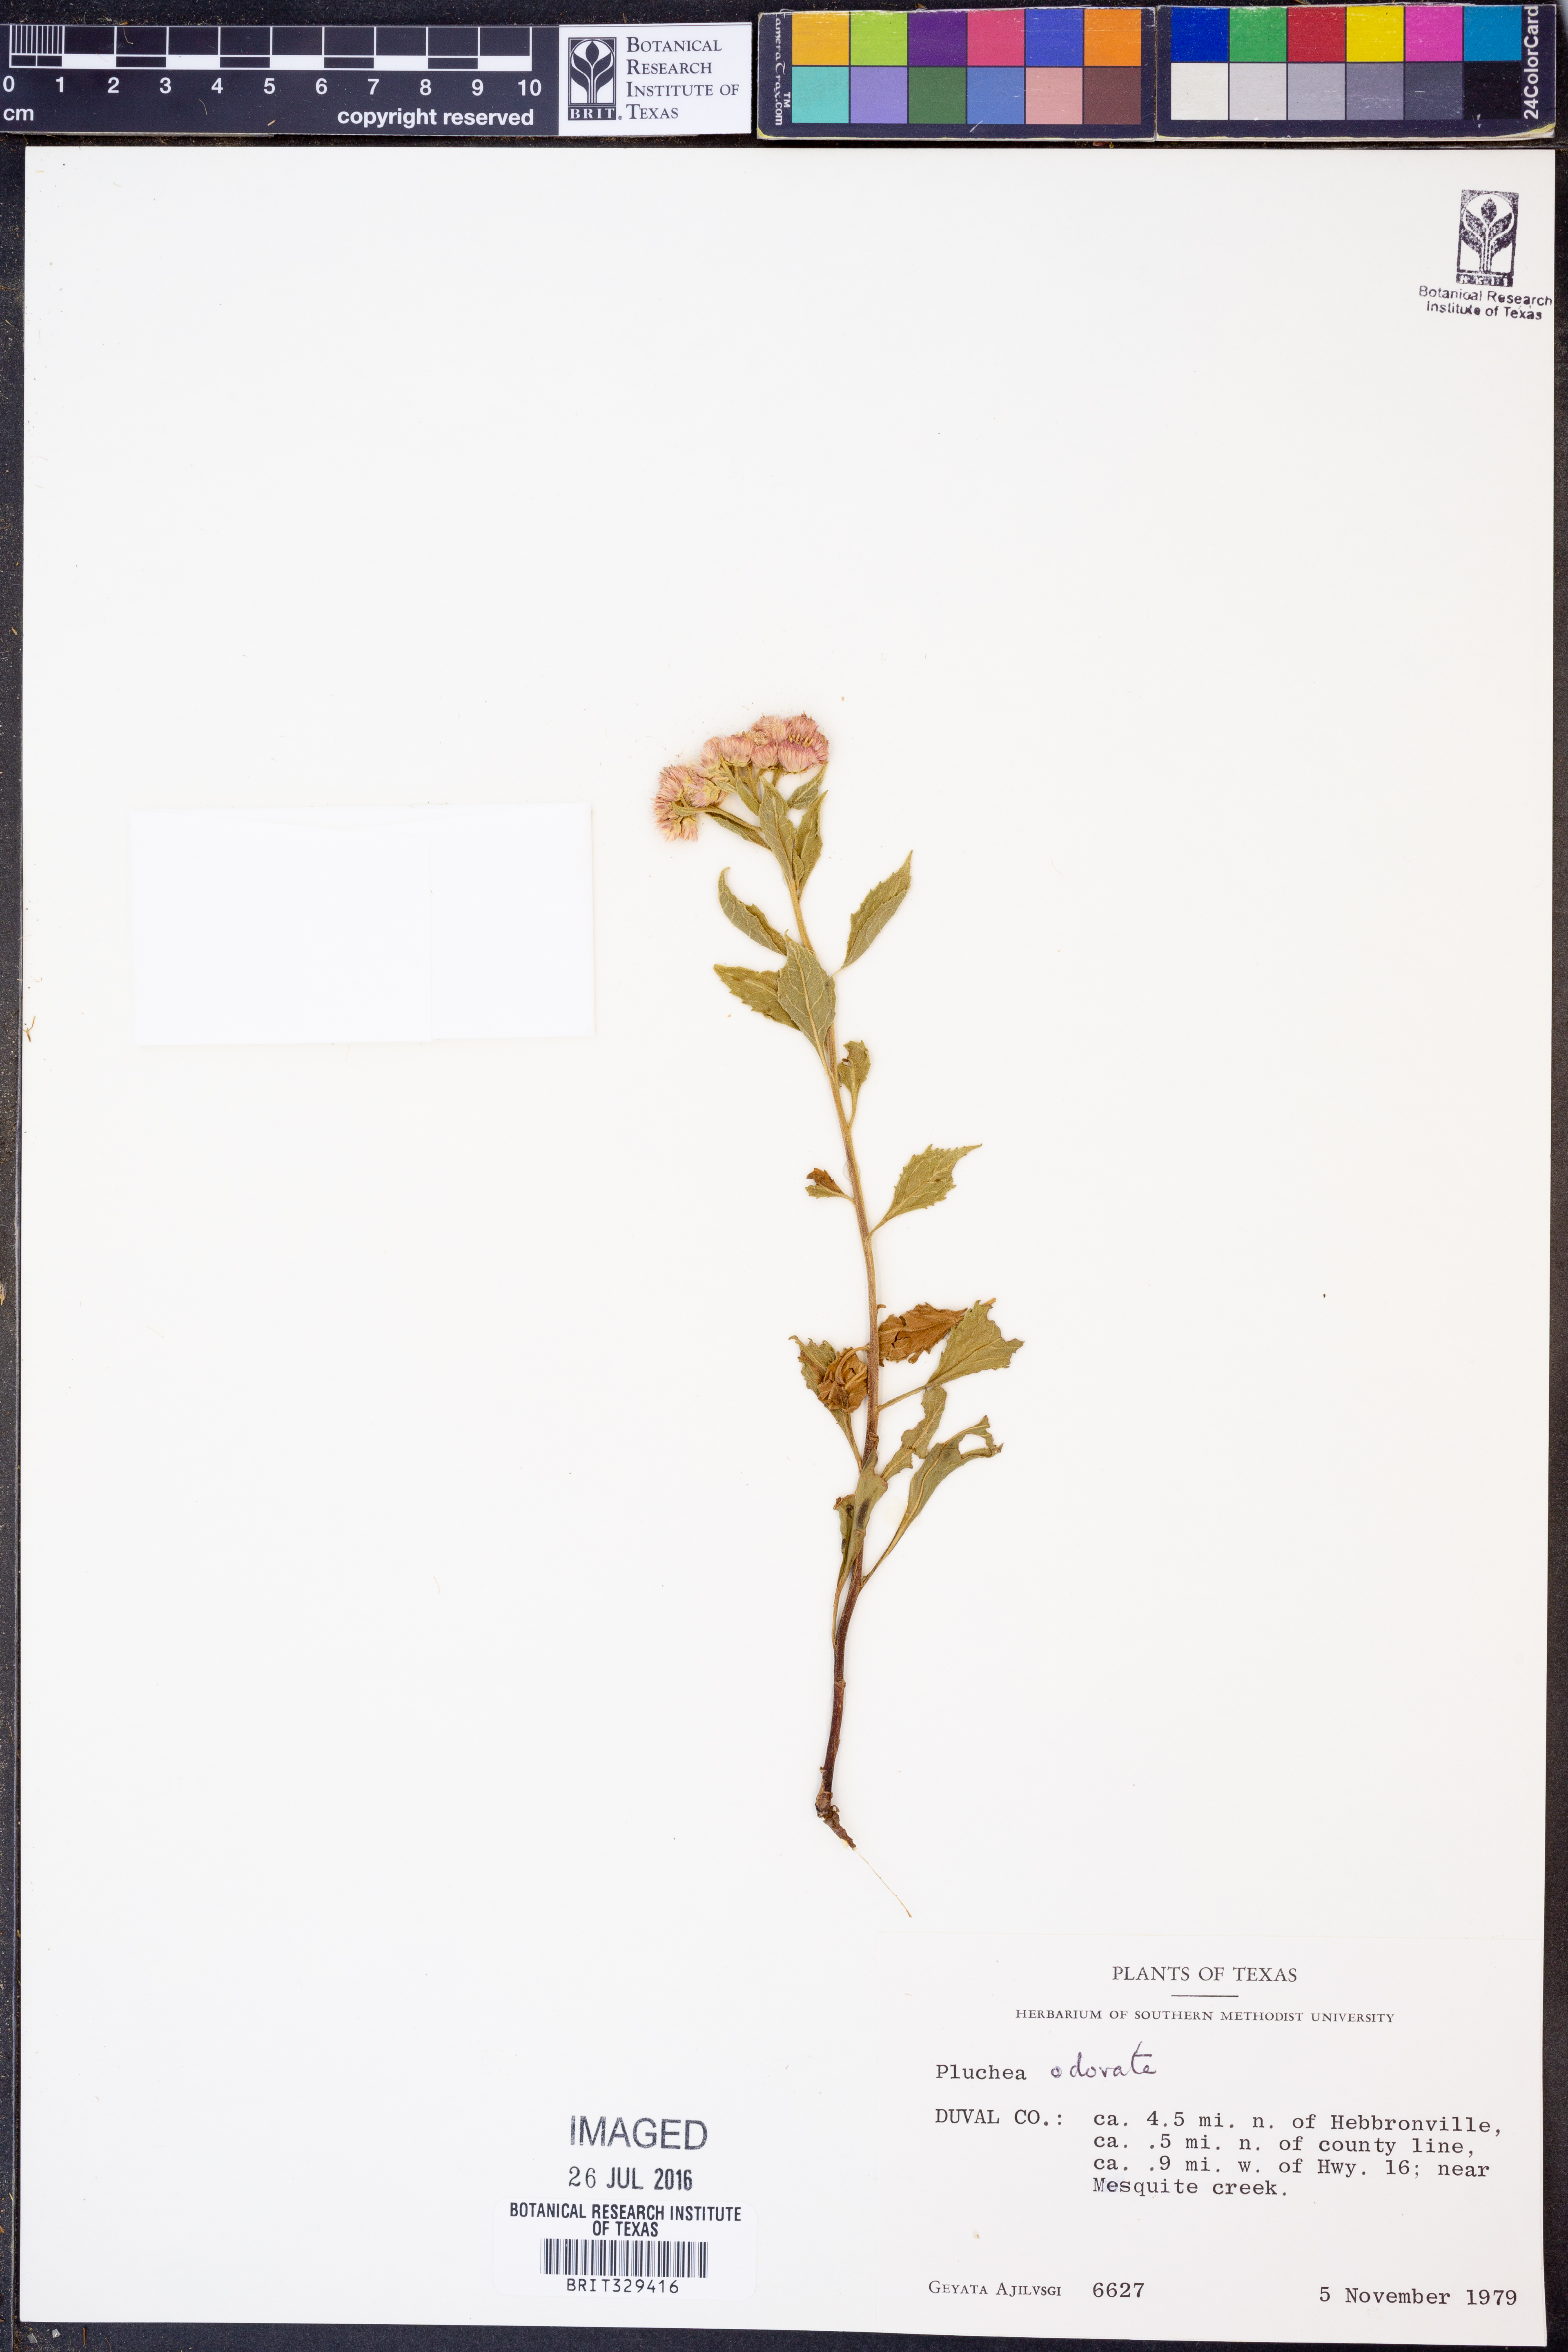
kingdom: Plantae
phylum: Tracheophyta
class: Magnoliopsida
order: Asterales
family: Asteraceae
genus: Pluchea
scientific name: Pluchea odorata
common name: Saltmarsh fleabane
